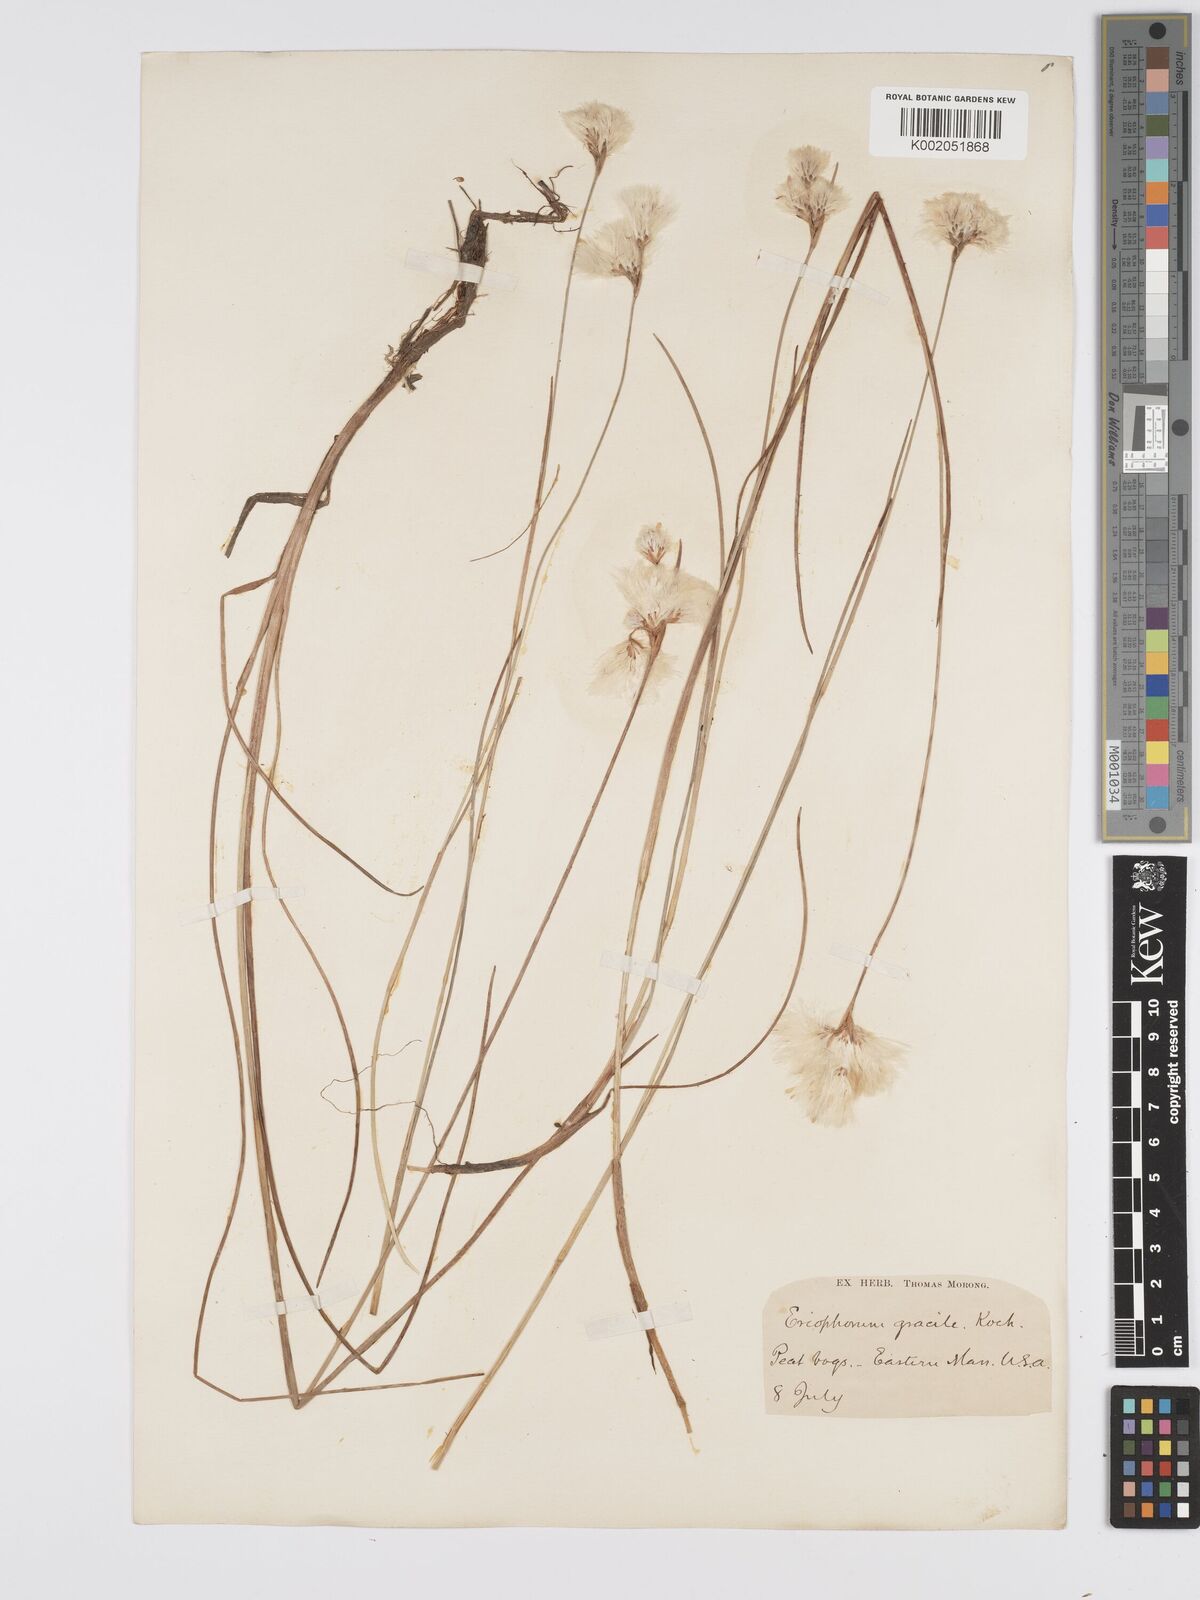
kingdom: Plantae
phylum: Tracheophyta
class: Liliopsida
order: Poales
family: Cyperaceae
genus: Eriophorum
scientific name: Eriophorum gracile
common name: Slender cottongrass
